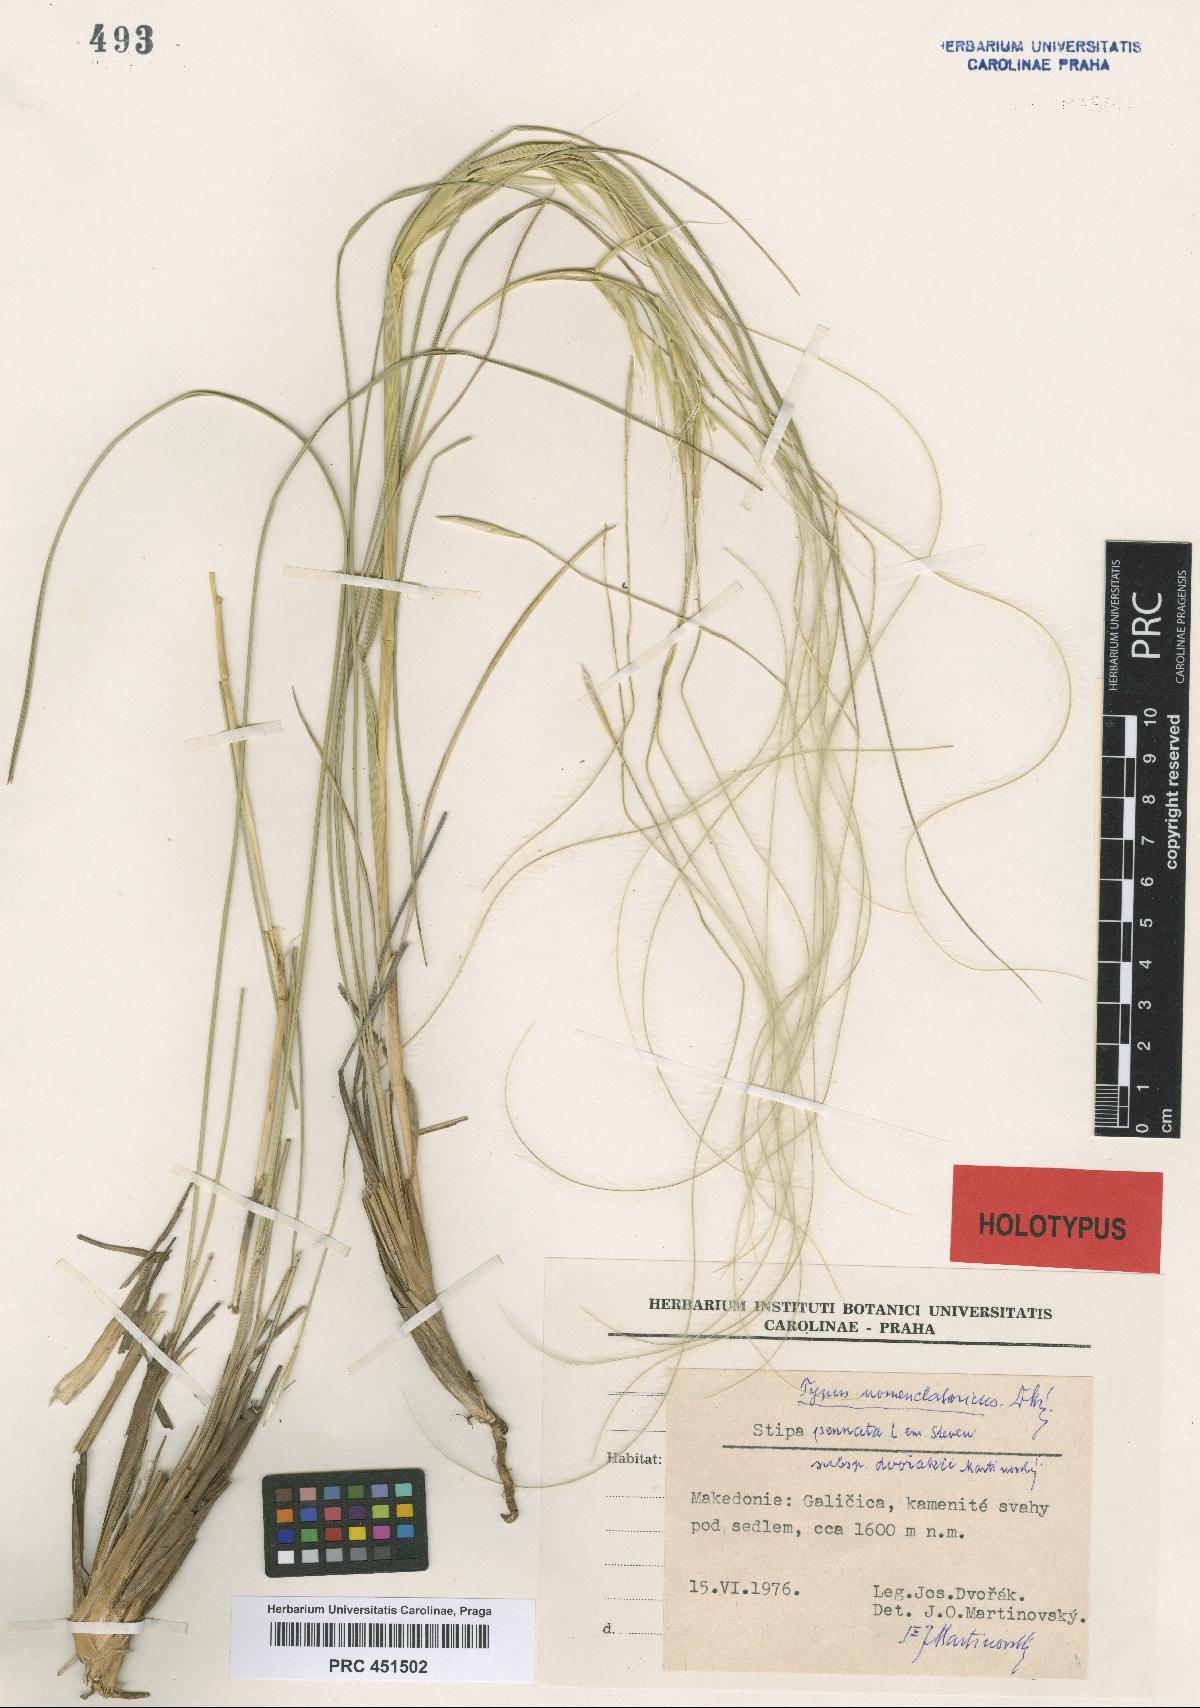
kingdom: Plantae
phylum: Tracheophyta
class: Liliopsida
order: Poales
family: Poaceae
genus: Stipa
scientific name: Stipa pennata
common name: European feather grass
